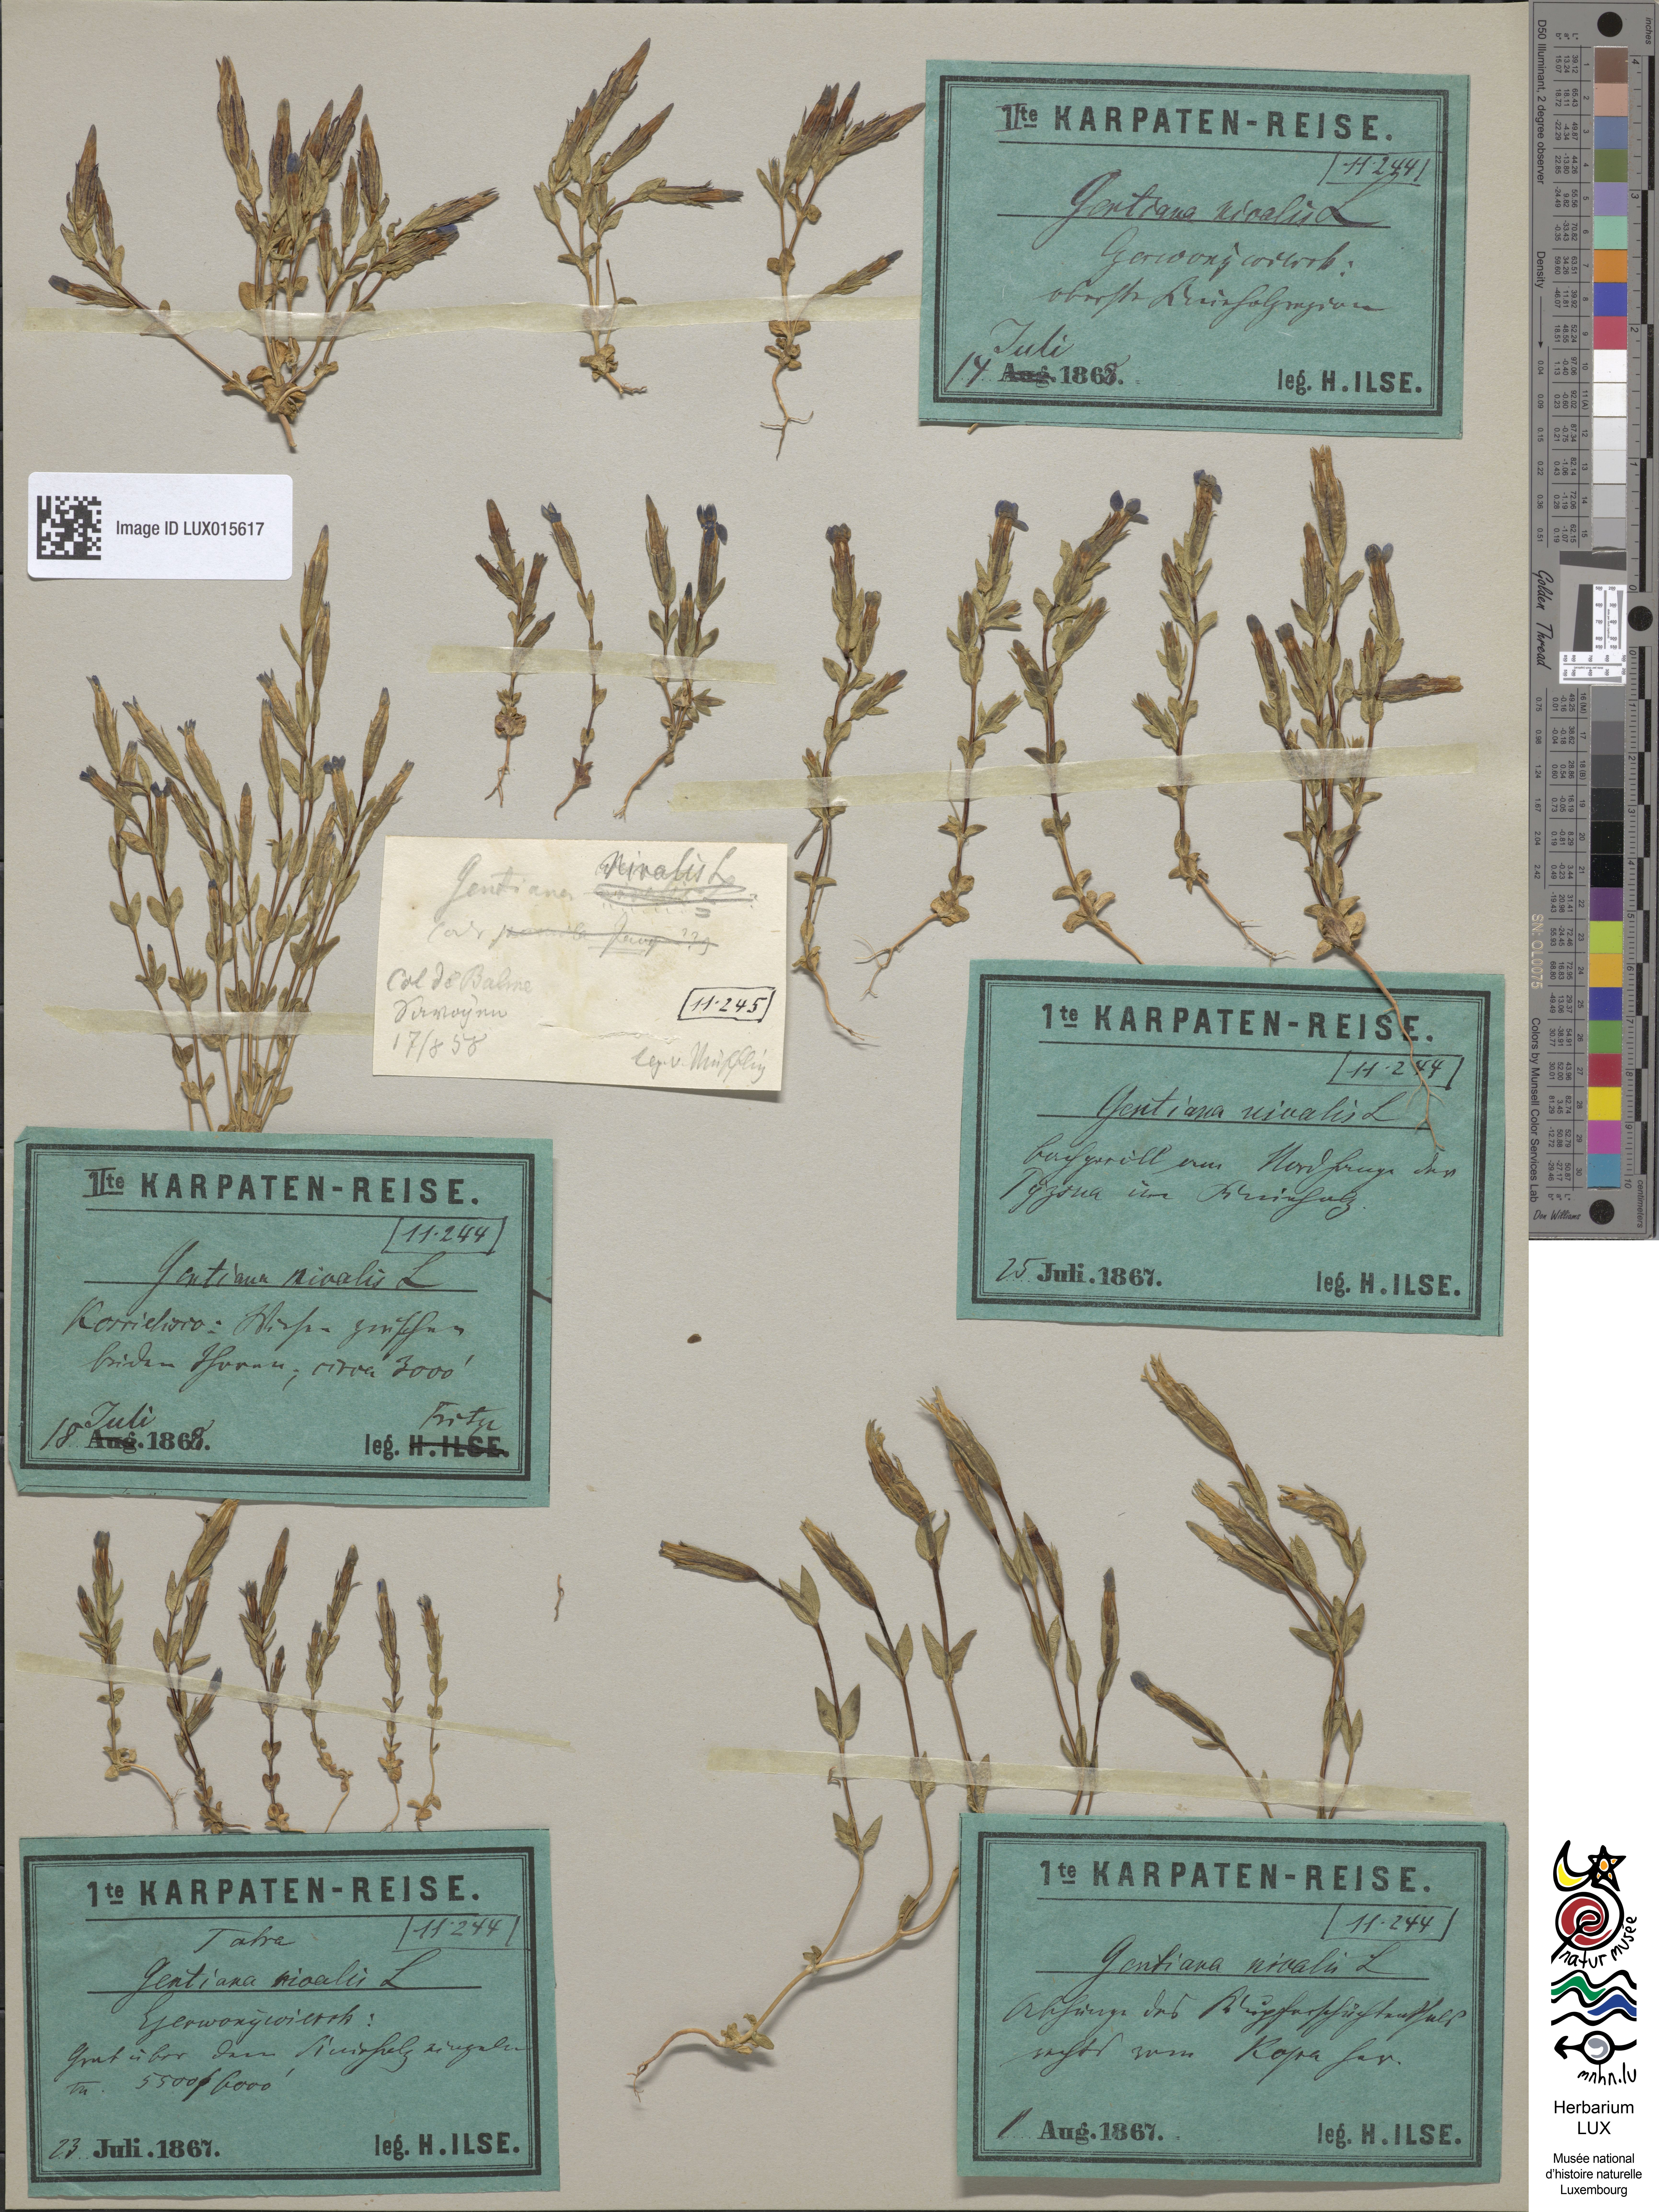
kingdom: Plantae
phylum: Tracheophyta
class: Magnoliopsida
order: Gentianales
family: Gentianaceae
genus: Gentiana
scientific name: Gentiana nivalis
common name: Alpine gentian
